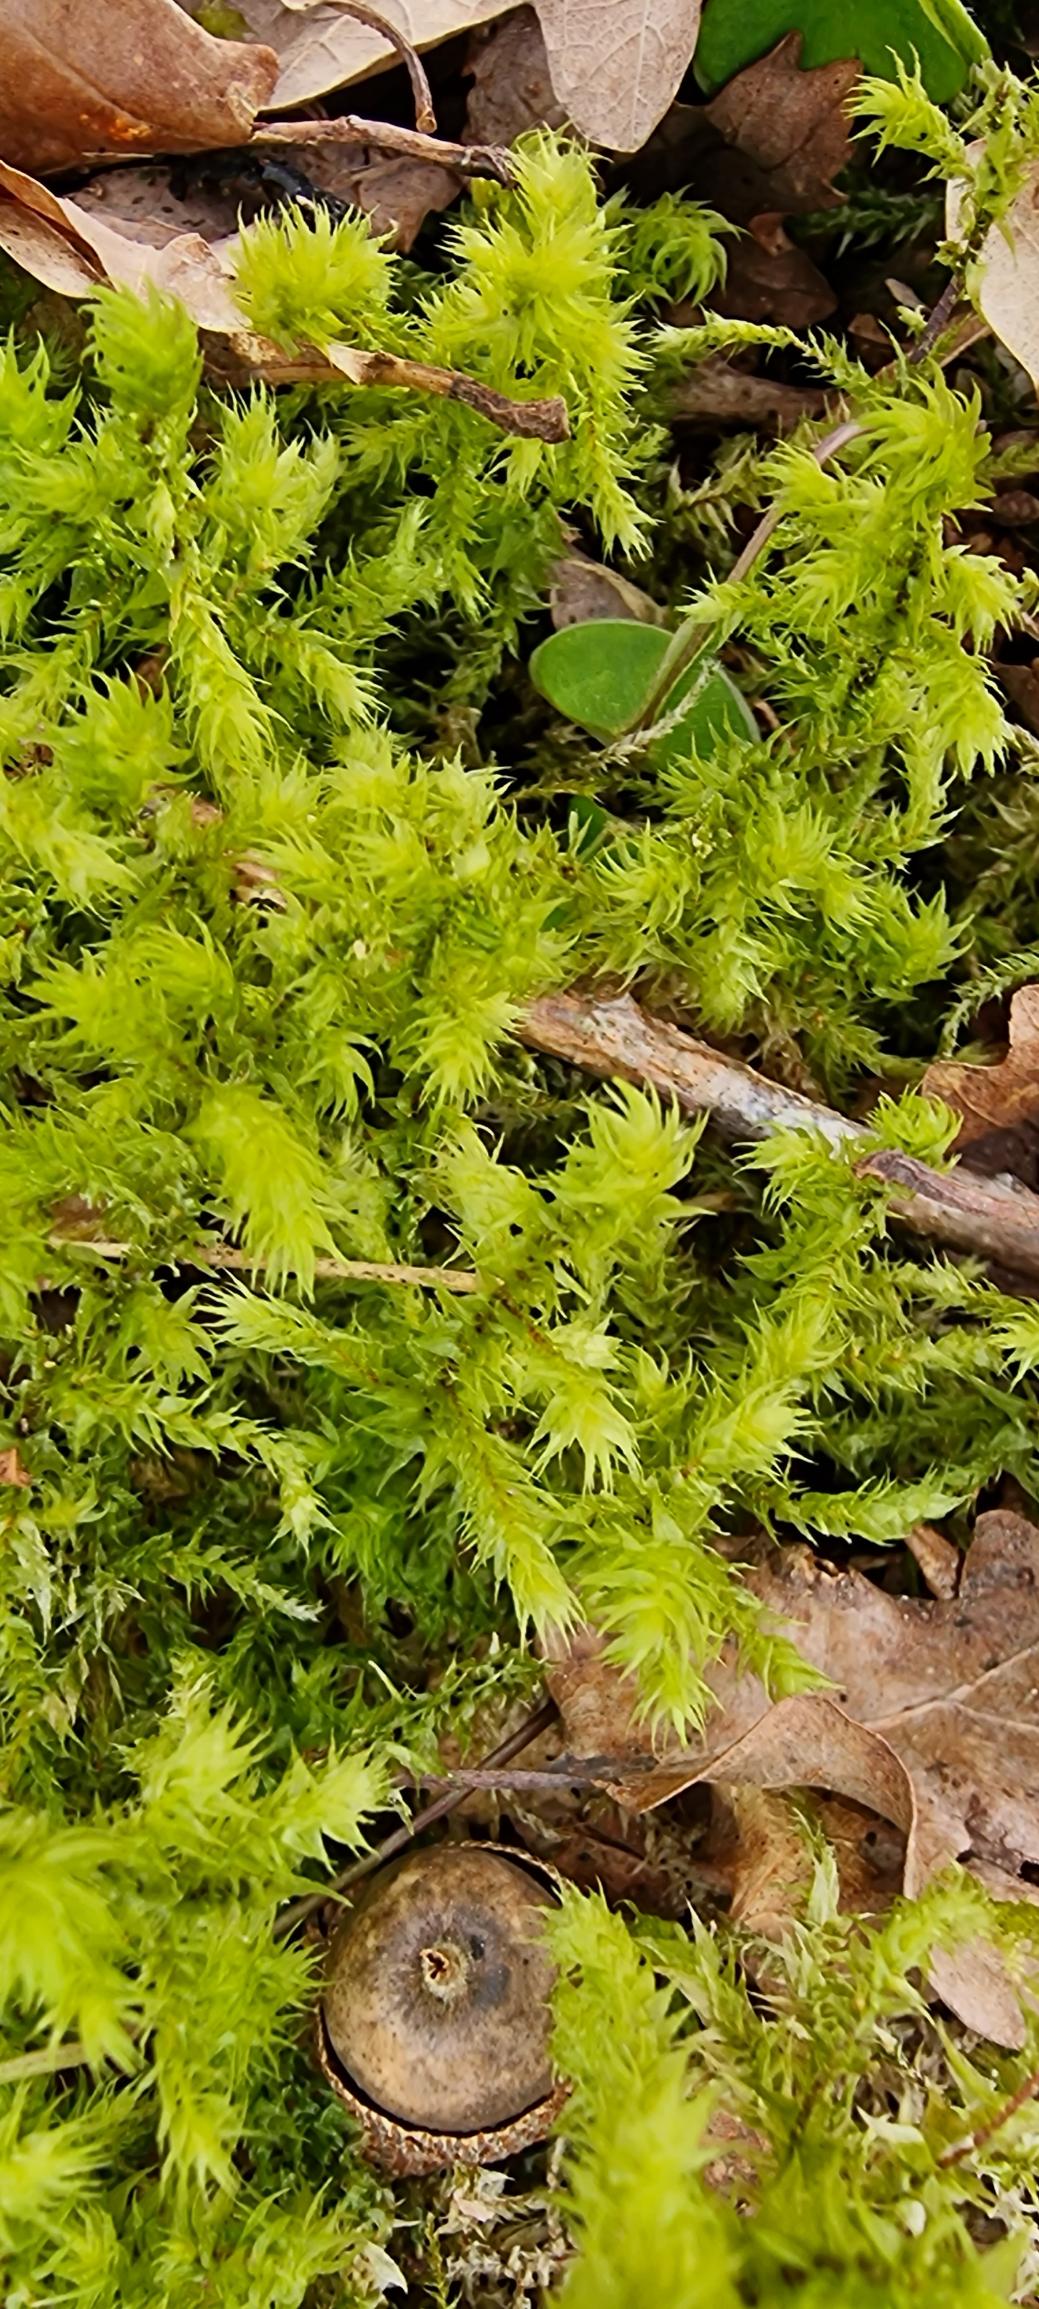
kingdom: Plantae
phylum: Bryophyta
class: Bryopsida
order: Hypnales
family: Hylocomiaceae
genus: Hylocomiadelphus
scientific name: Hylocomiadelphus triquetrus
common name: Stor kransemos
